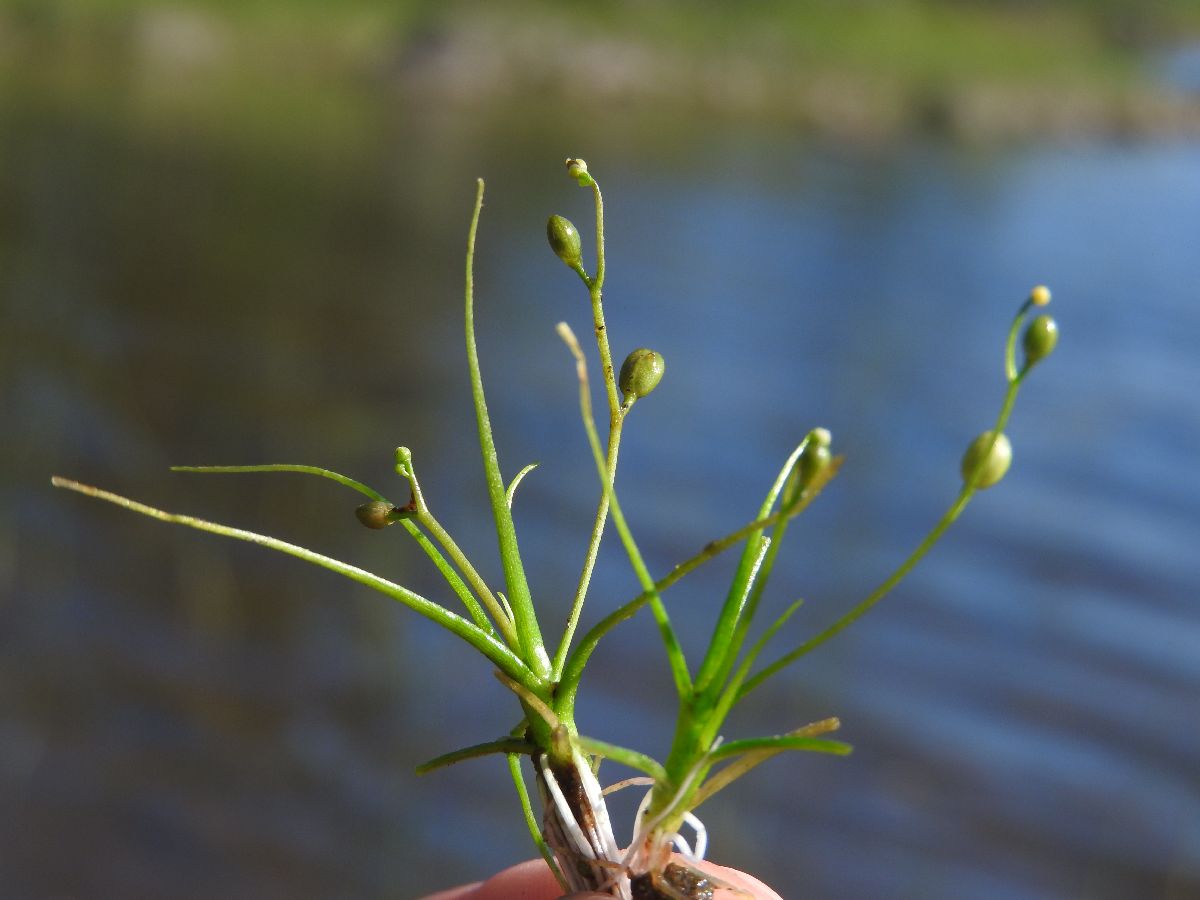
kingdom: Plantae
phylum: Tracheophyta
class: Magnoliopsida
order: Brassicales
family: Brassicaceae
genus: Subularia
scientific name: Subularia aquatica
